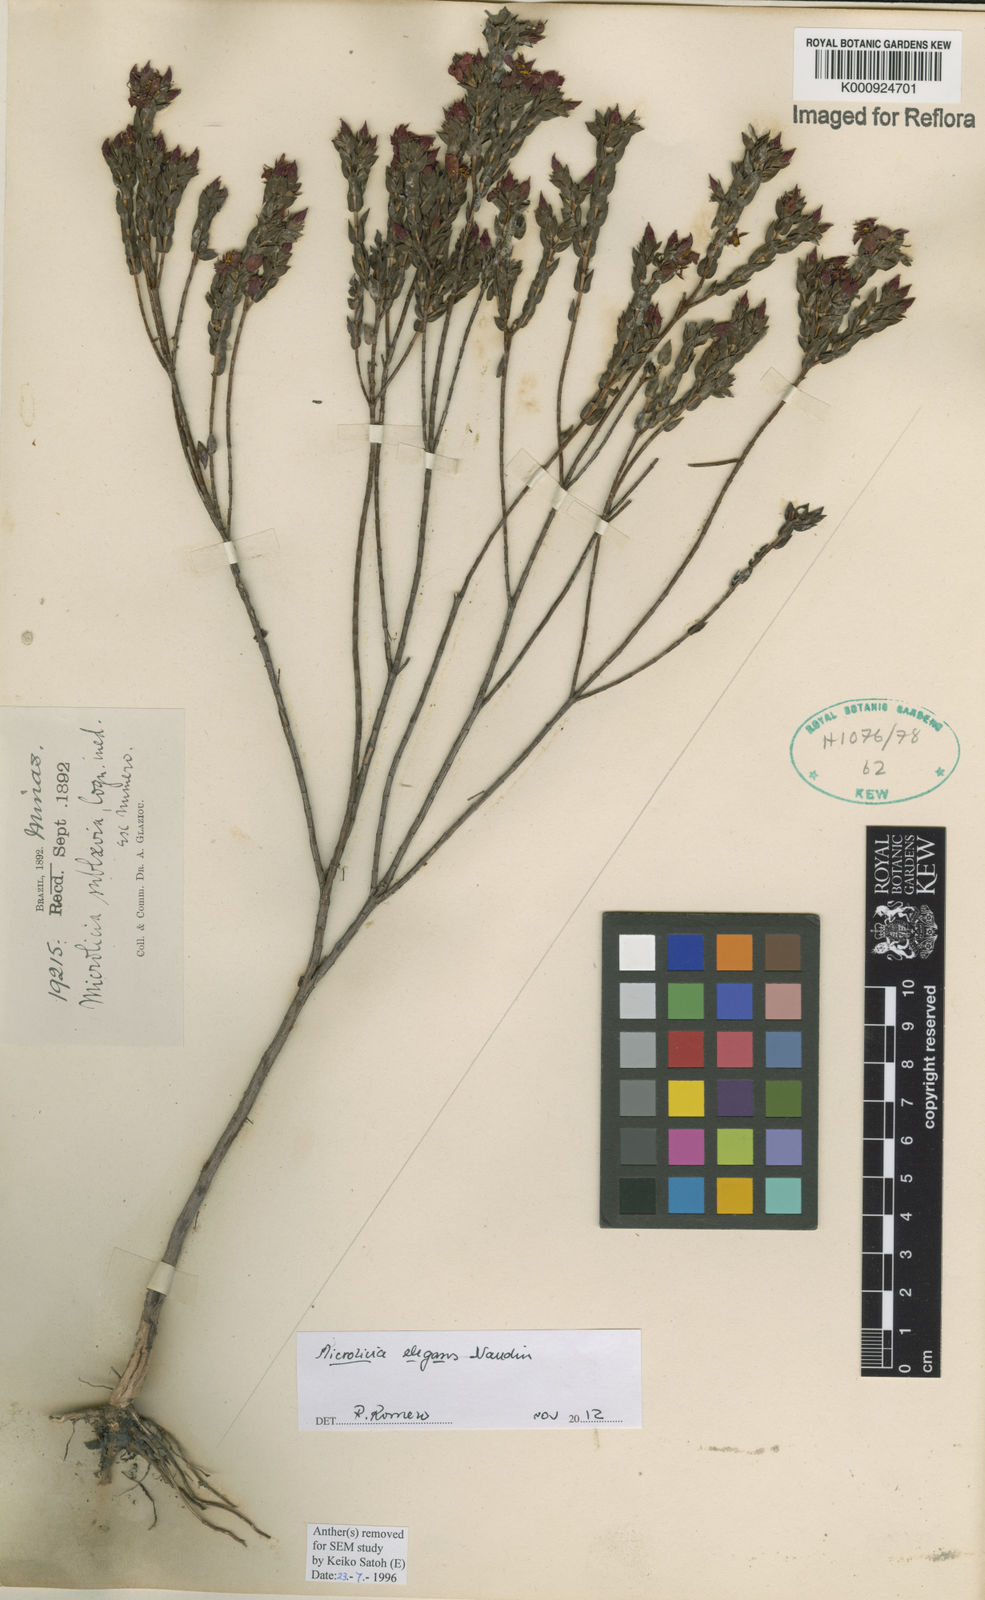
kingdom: Plantae
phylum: Tracheophyta
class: Magnoliopsida
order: Myrtales
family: Melastomataceae
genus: Microlicia
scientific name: Microlicia elegans
